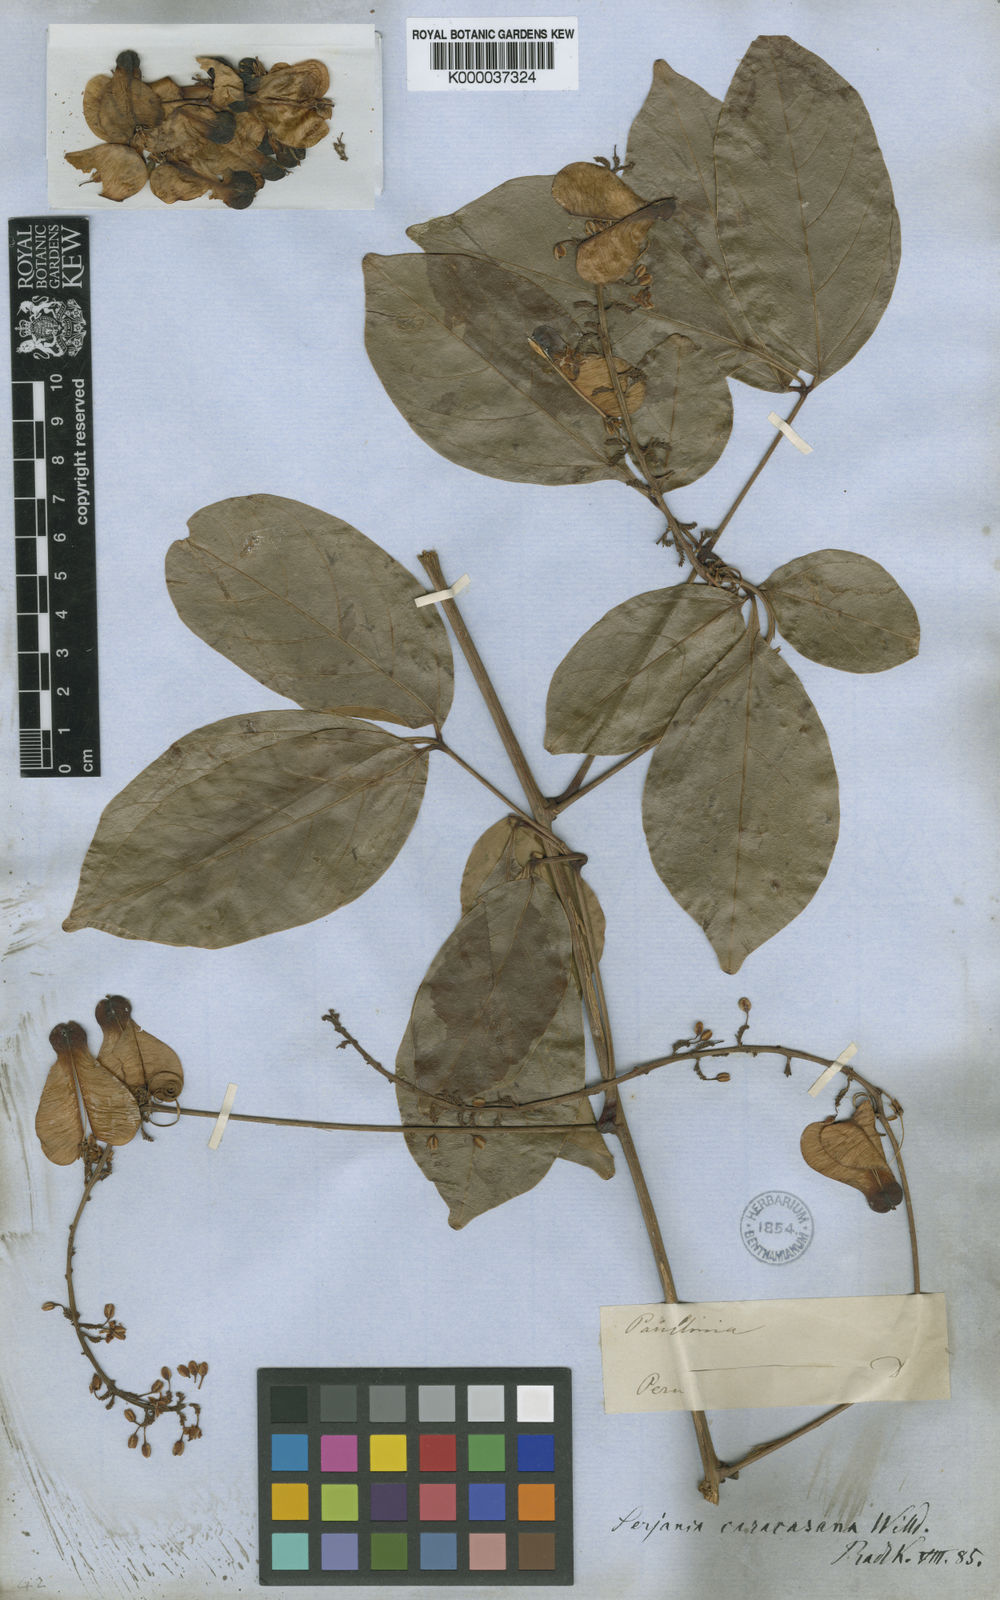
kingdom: Plantae
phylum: Tracheophyta
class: Magnoliopsida
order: Sapindales
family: Sapindaceae
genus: Serjania
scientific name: Serjania caracasana
